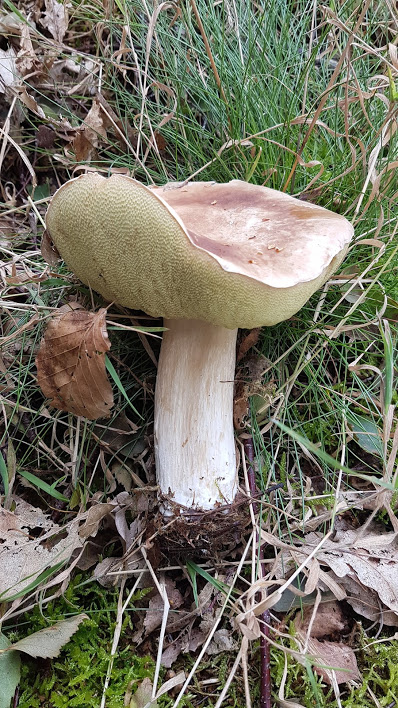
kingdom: Fungi
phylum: Basidiomycota
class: Agaricomycetes
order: Boletales
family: Boletaceae
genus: Boletus
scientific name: Boletus edulis
